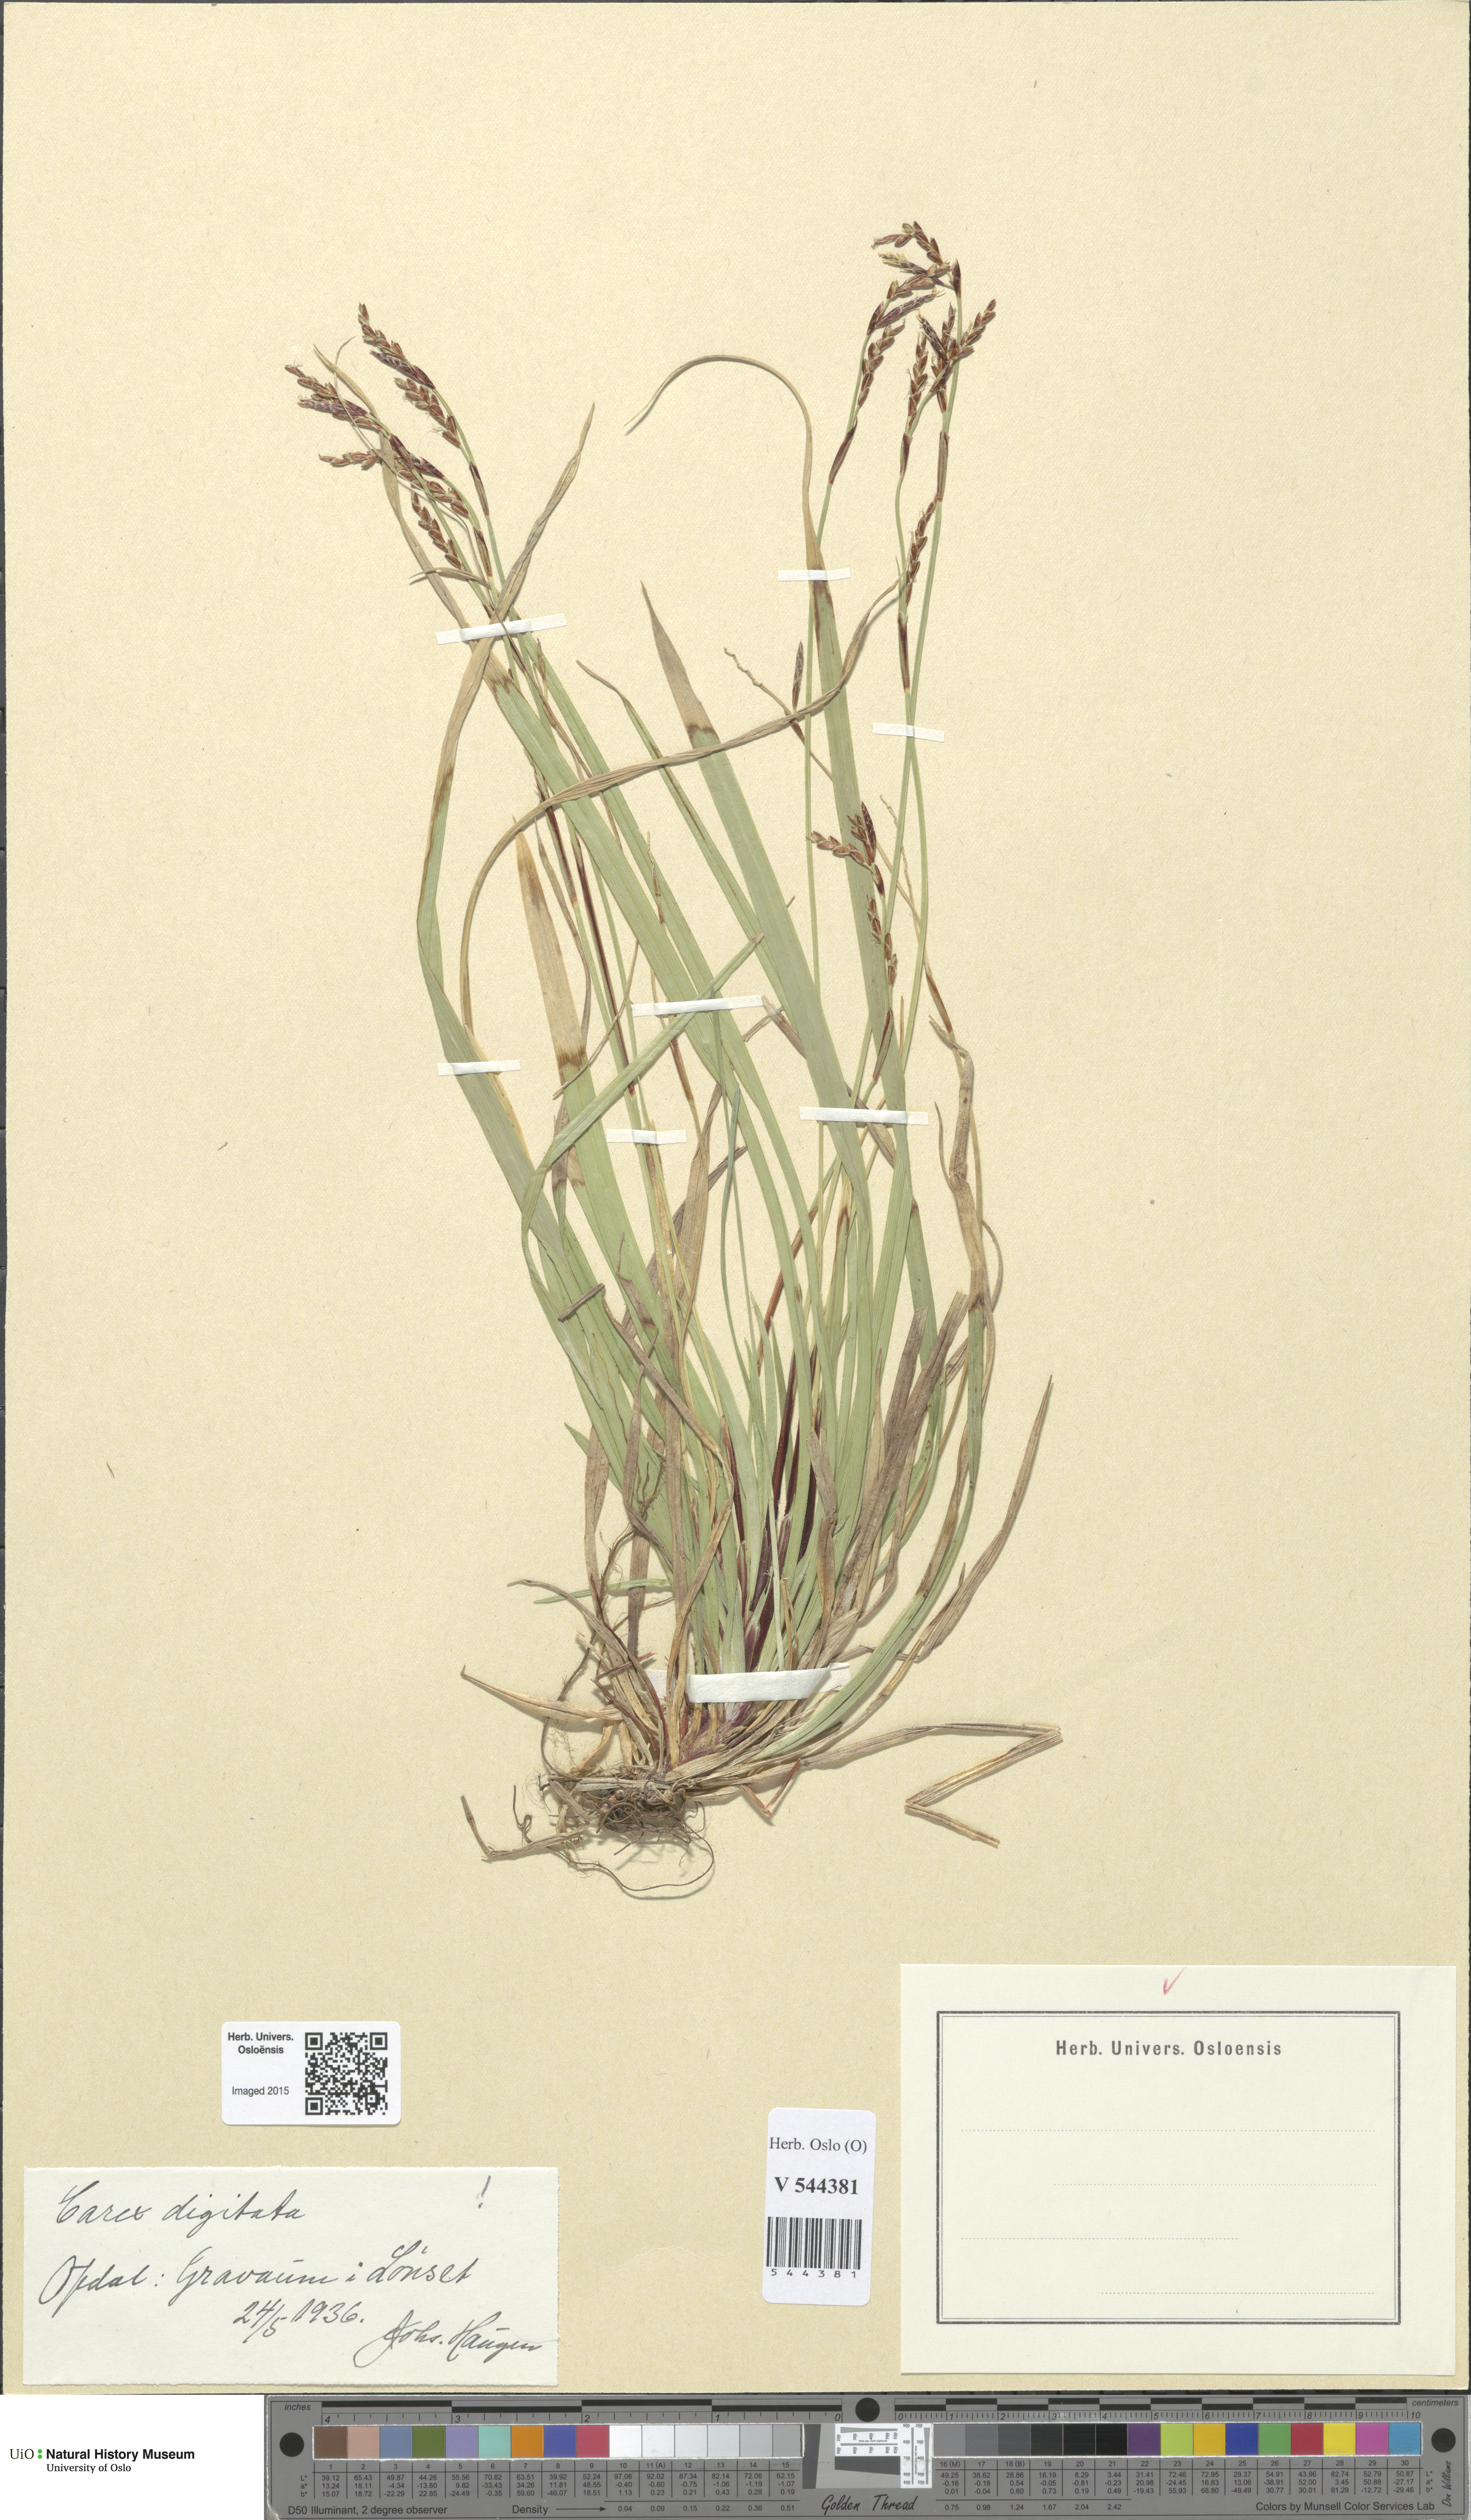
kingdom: Plantae
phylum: Tracheophyta
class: Liliopsida
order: Poales
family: Cyperaceae
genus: Carex
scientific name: Carex digitata
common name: Fingered sedge
